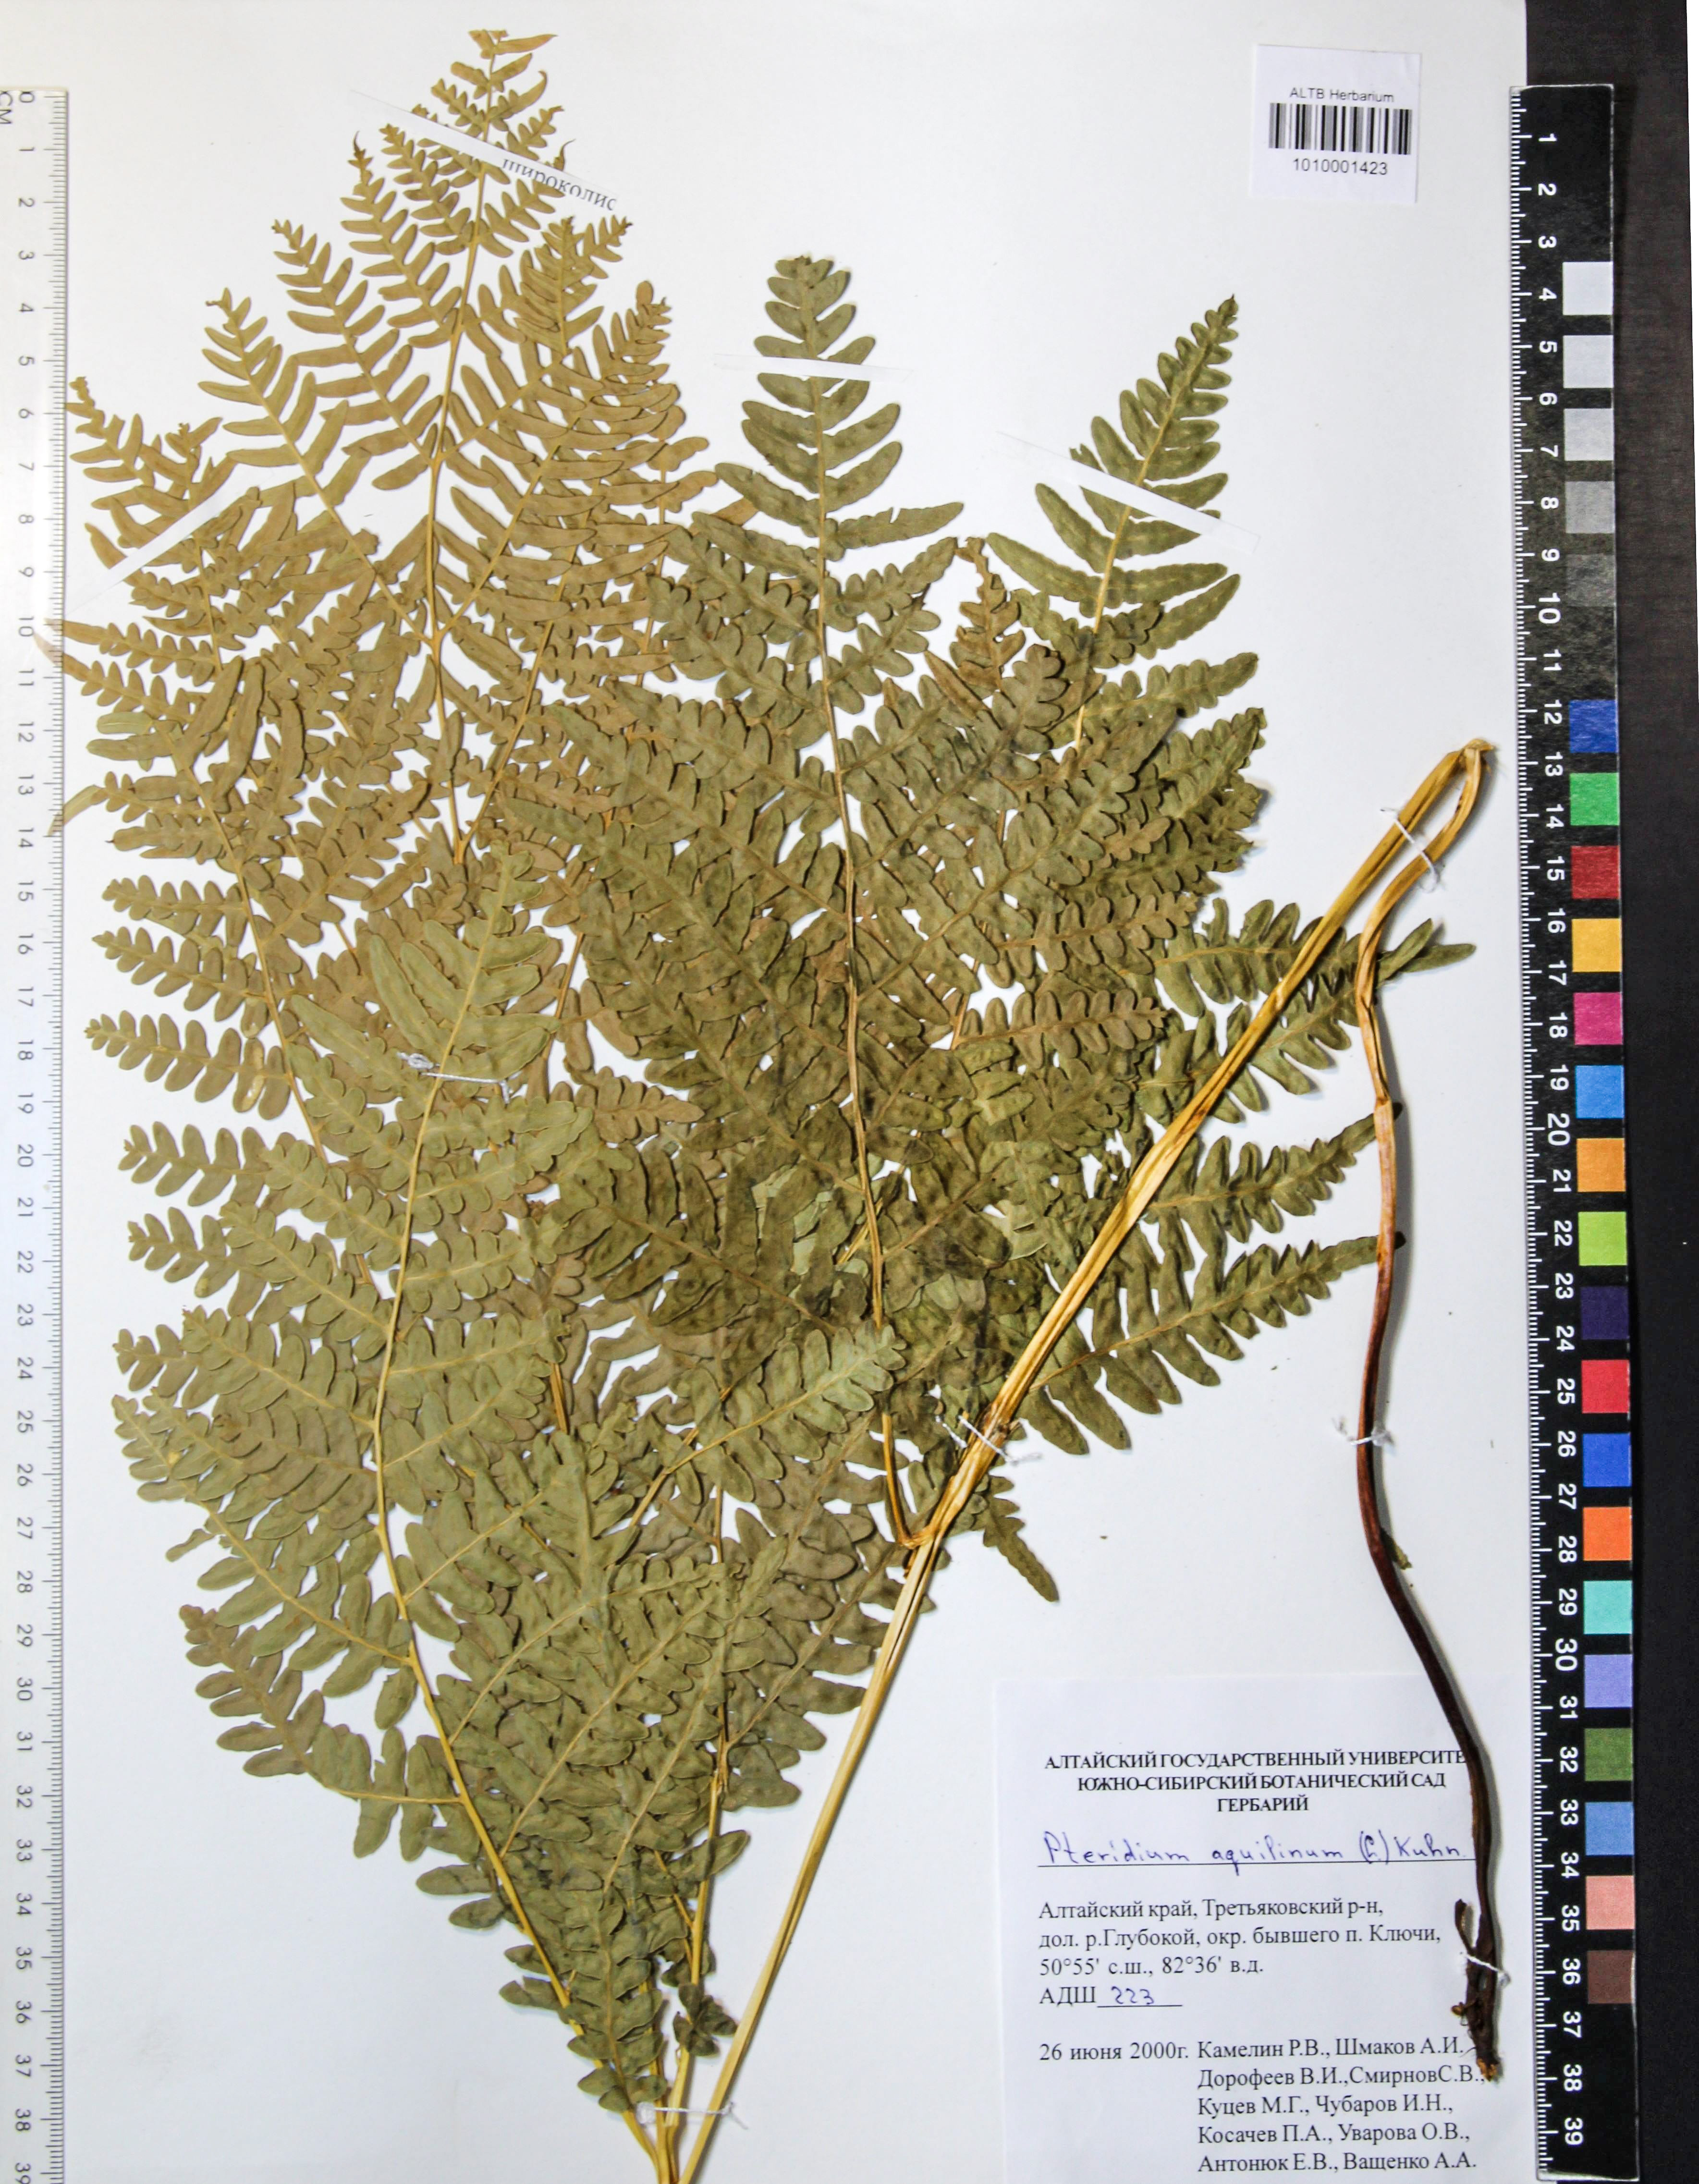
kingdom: Plantae
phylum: Tracheophyta
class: Polypodiopsida
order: Polypodiales
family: Dennstaedtiaceae
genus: Pteridium
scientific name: Pteridium aquilinum
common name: Bracken
